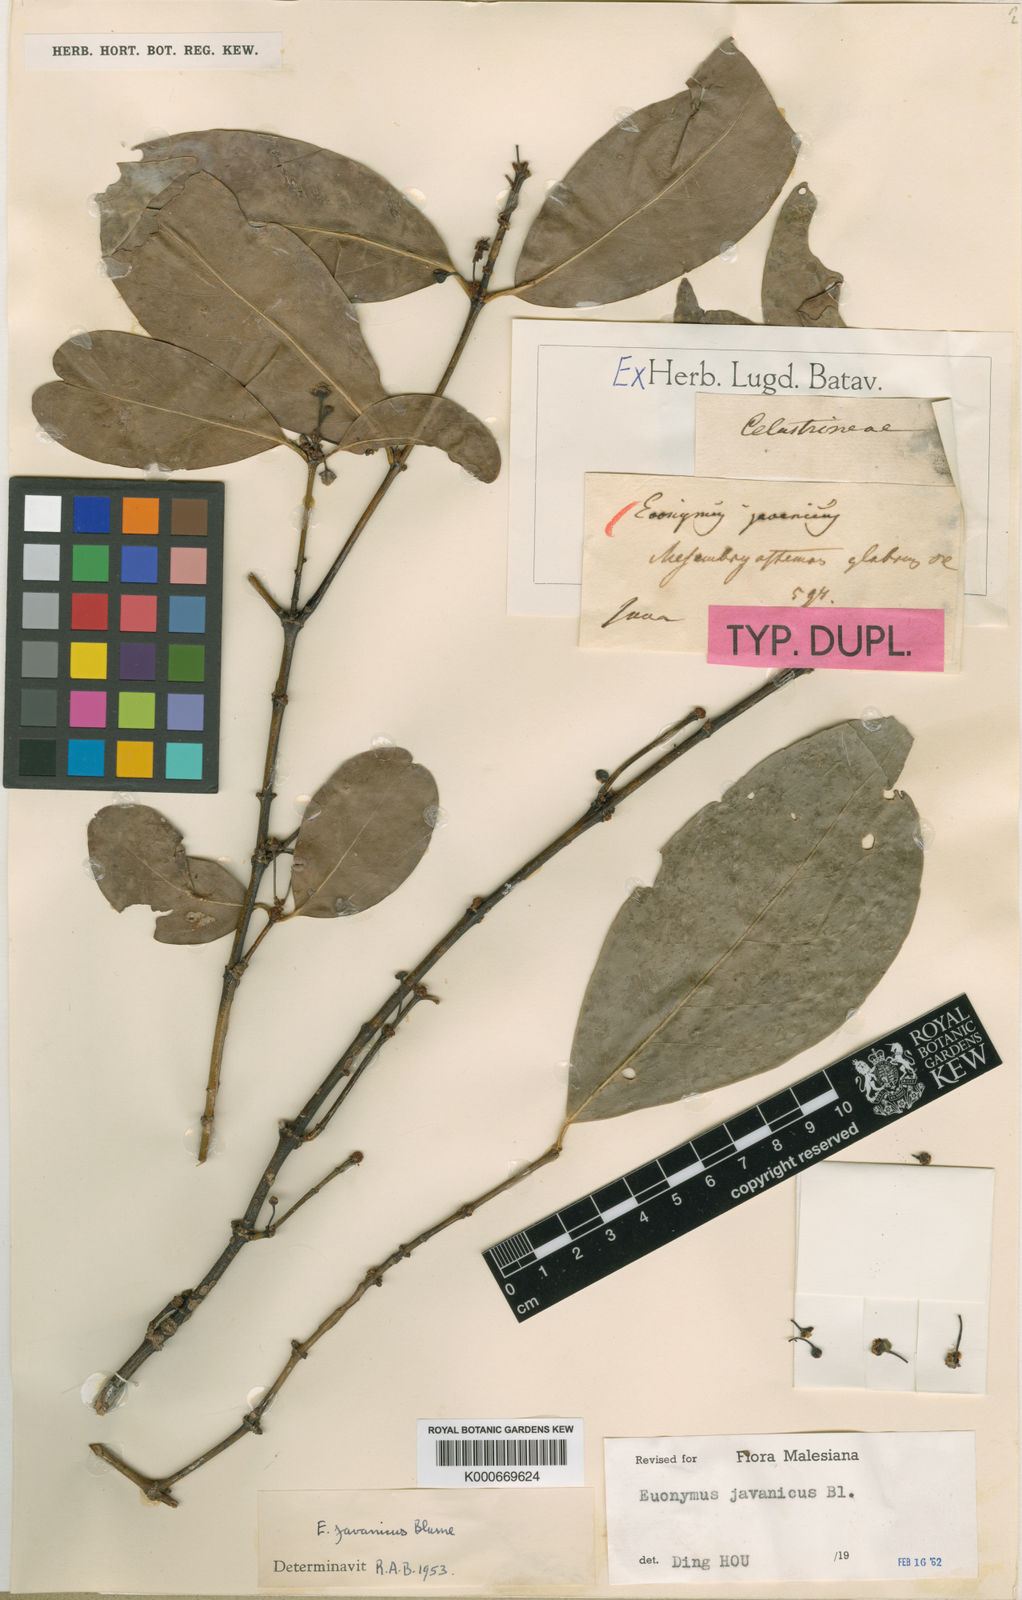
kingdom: Plantae
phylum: Tracheophyta
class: Magnoliopsida
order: Celastrales
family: Celastraceae
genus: Euonymus
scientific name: Euonymus indicus
